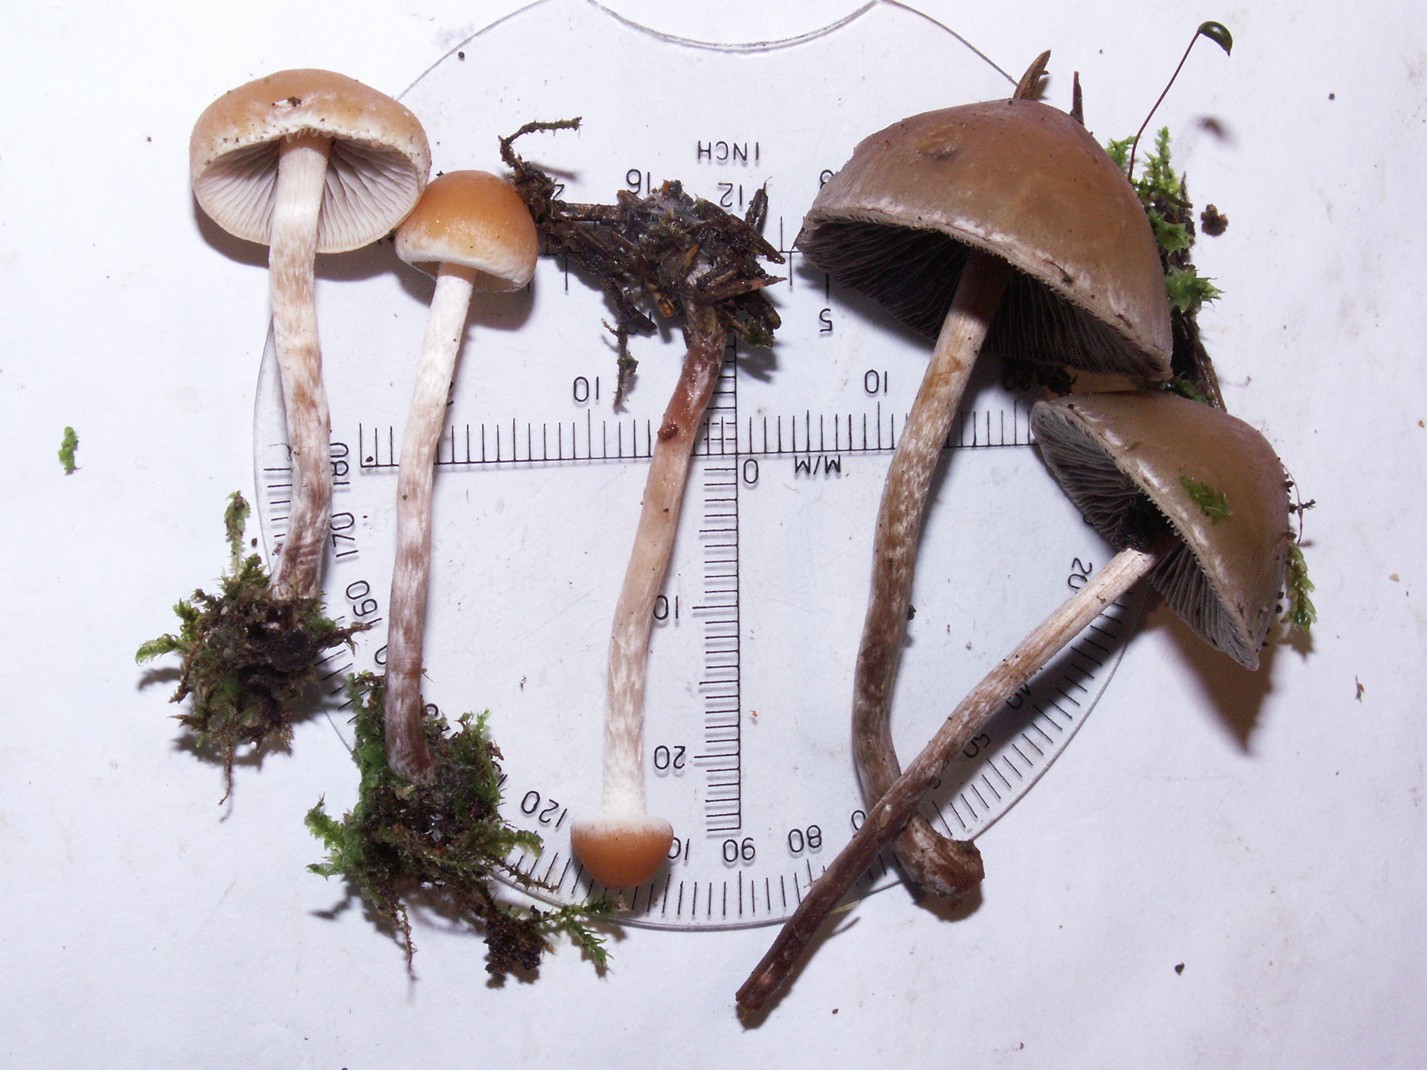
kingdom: Fungi
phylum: Basidiomycota
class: Agaricomycetes
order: Agaricales
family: Strophariaceae
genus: Hypholoma
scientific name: Hypholoma marginatum
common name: enlig svovlhat
